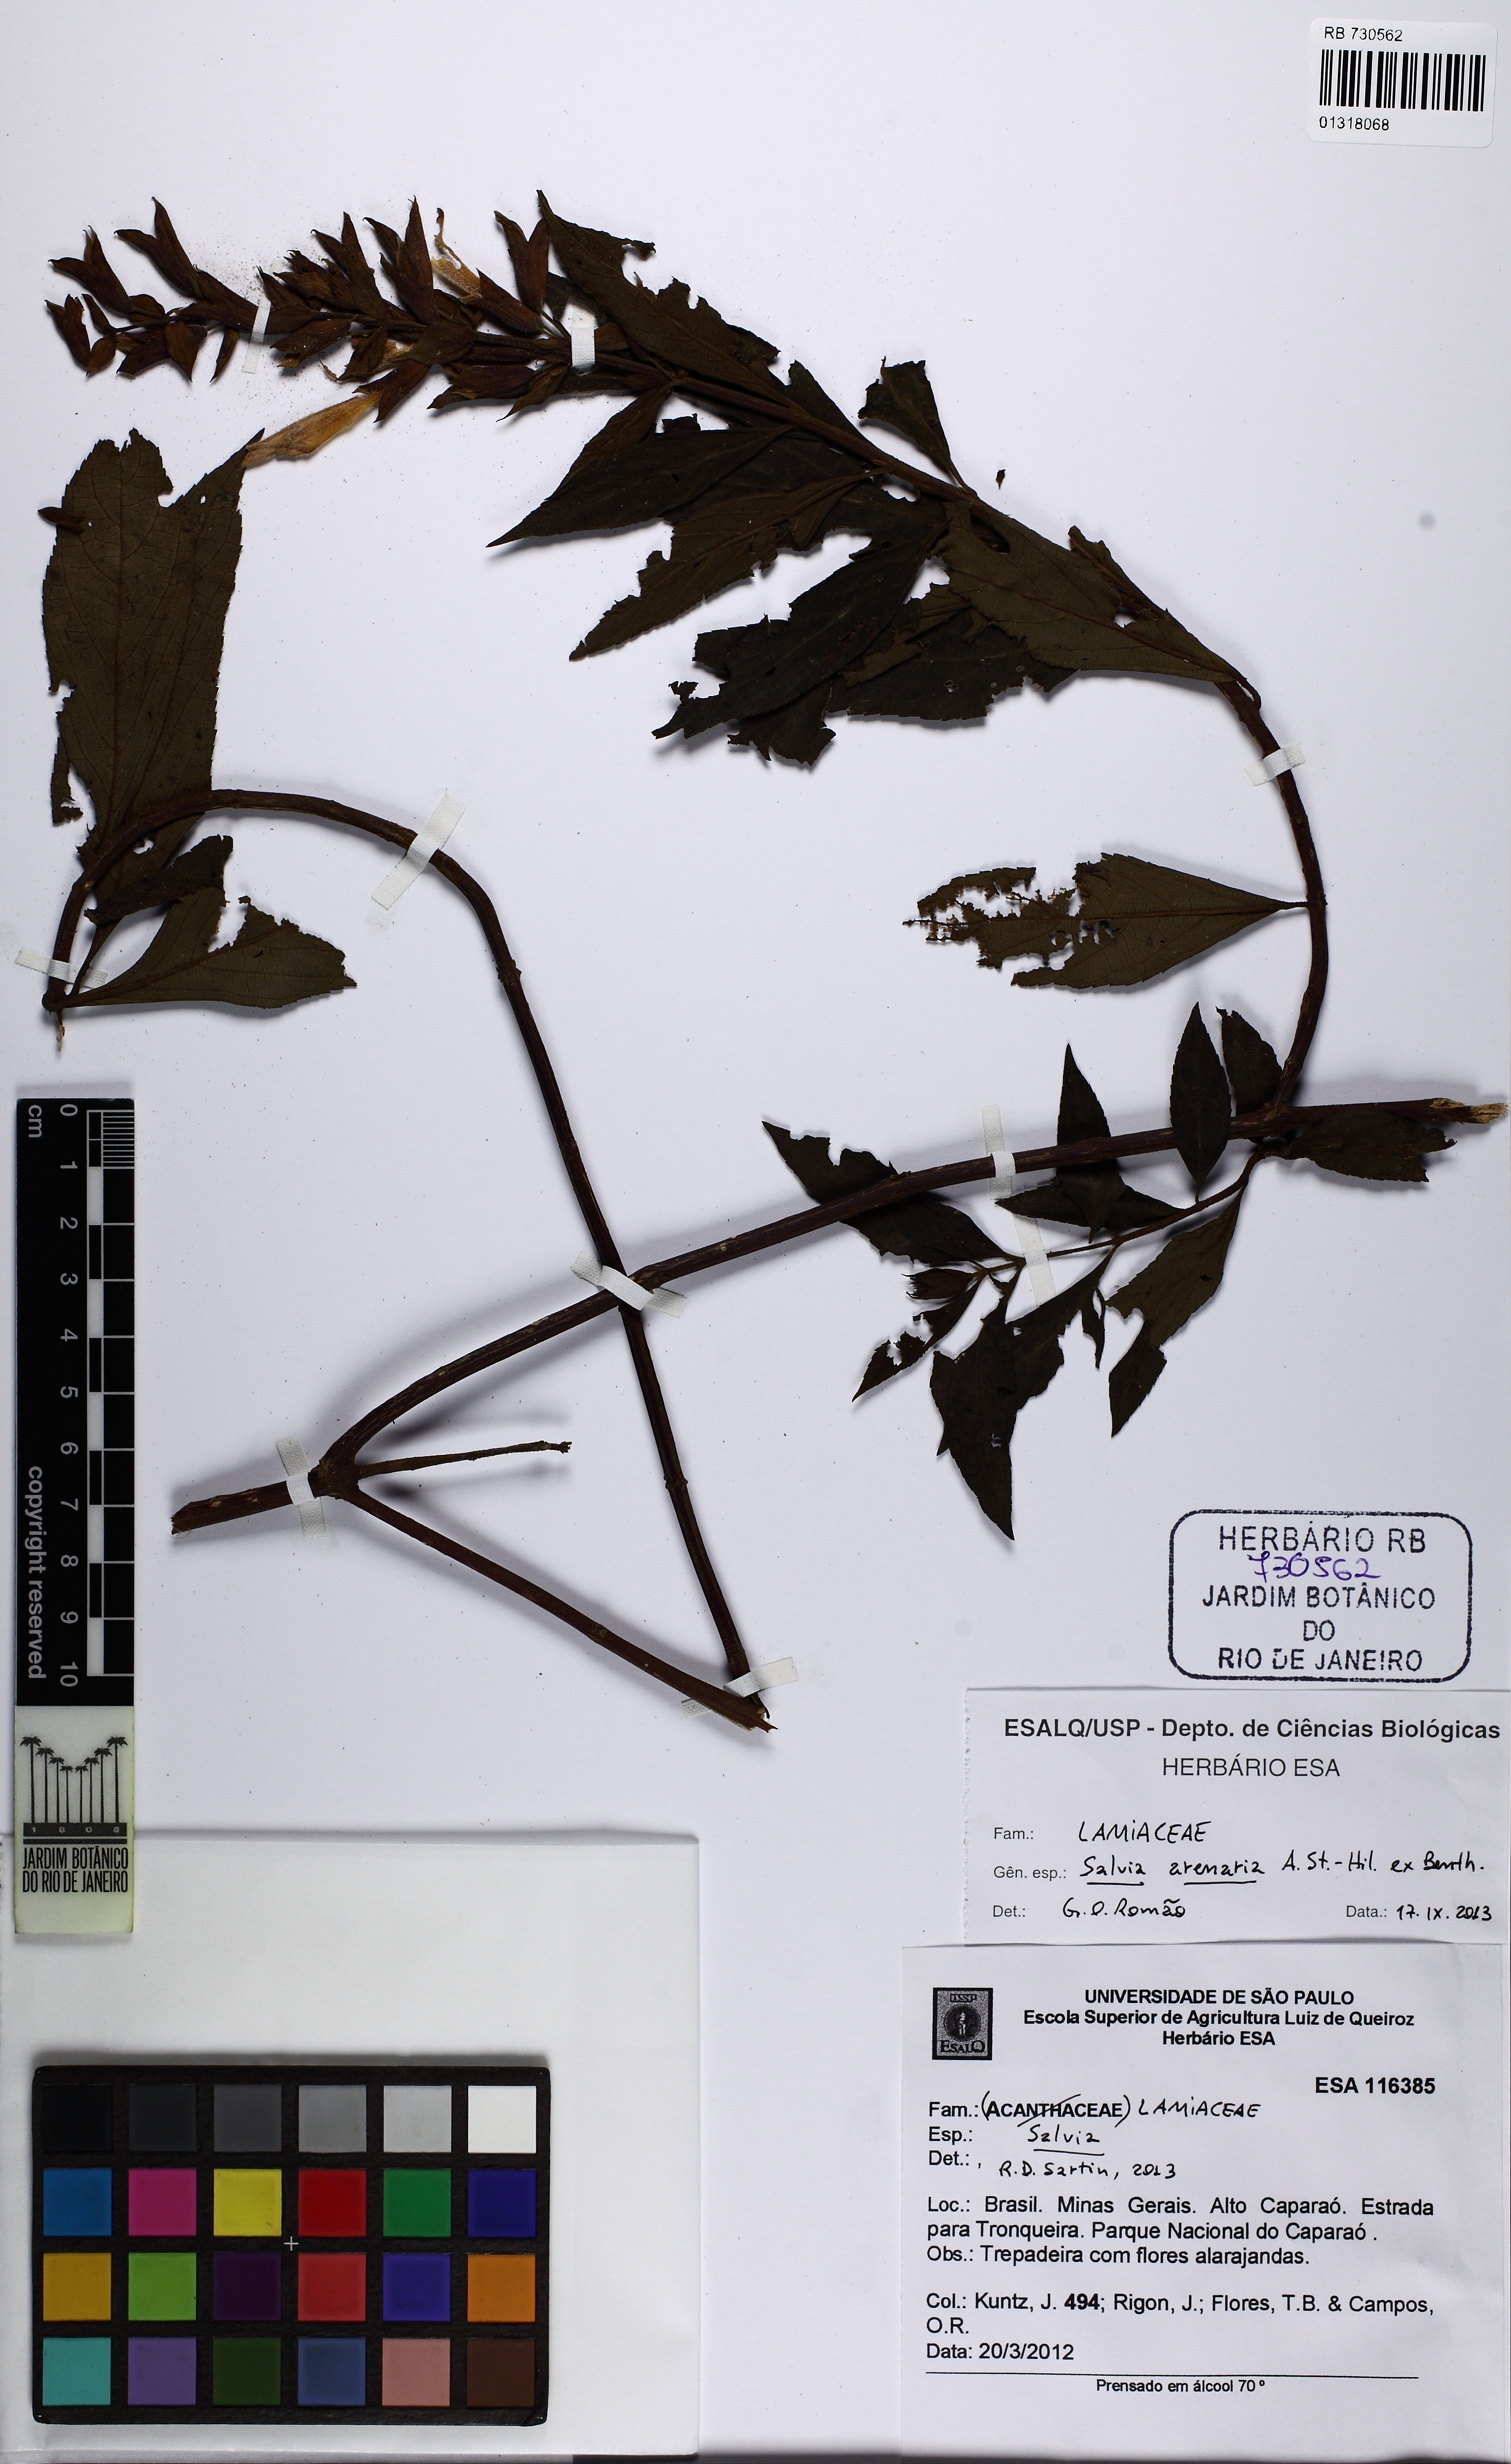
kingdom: Plantae
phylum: Tracheophyta
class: Magnoliopsida
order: Lamiales
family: Lamiaceae
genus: Salvia
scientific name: Salvia salicifolia
